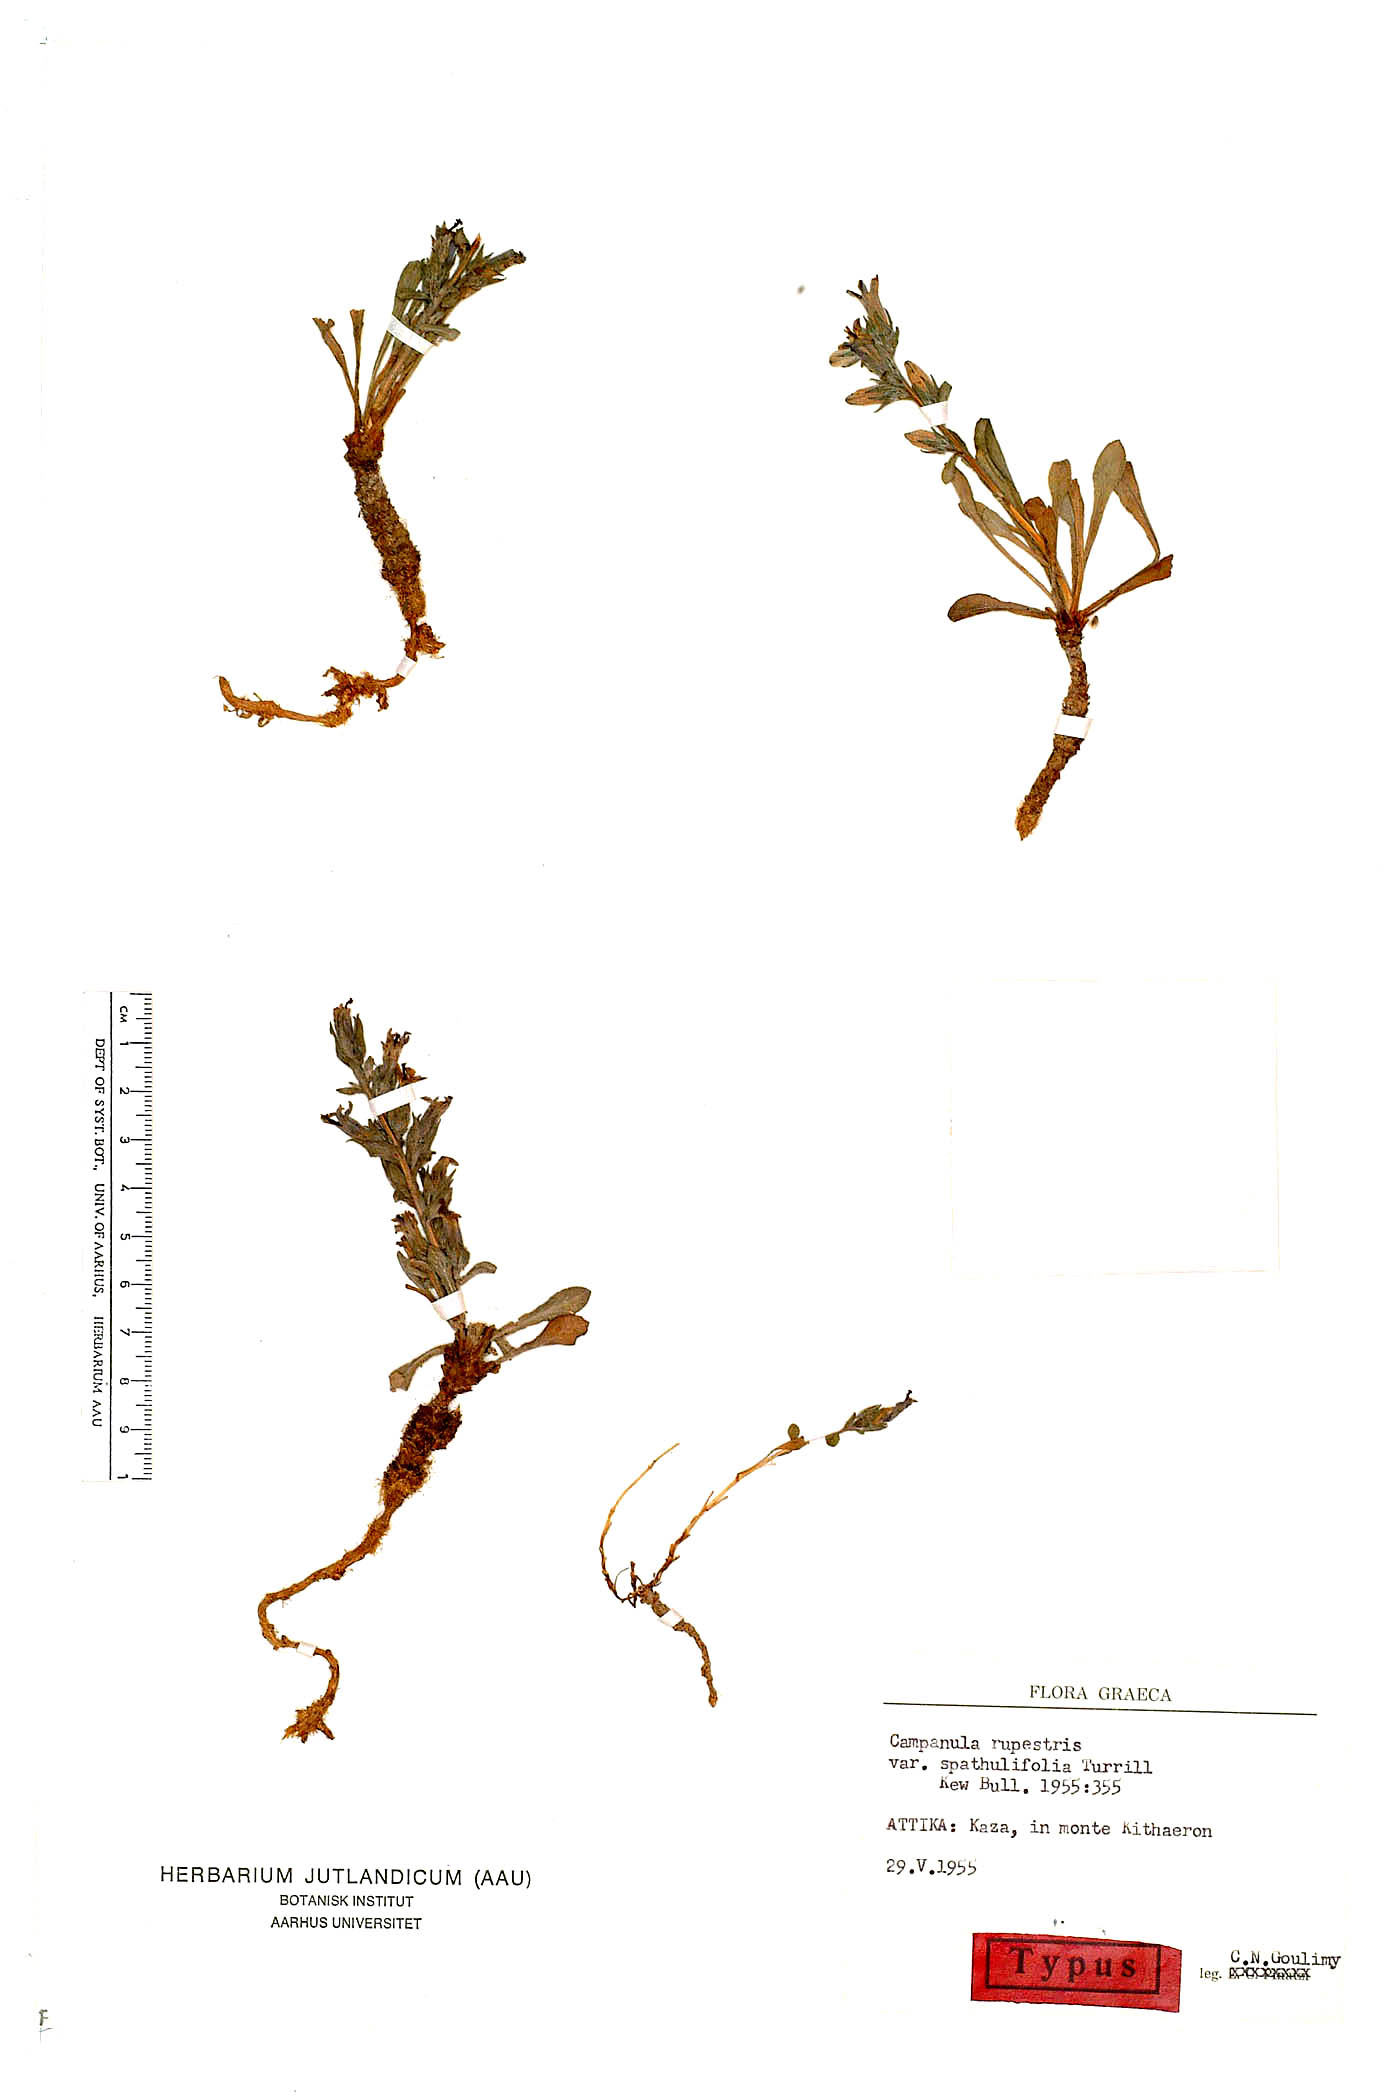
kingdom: Plantae
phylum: Tracheophyta
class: Magnoliopsida
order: Asterales
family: Campanulaceae
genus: Campanula
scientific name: Campanula celsii
